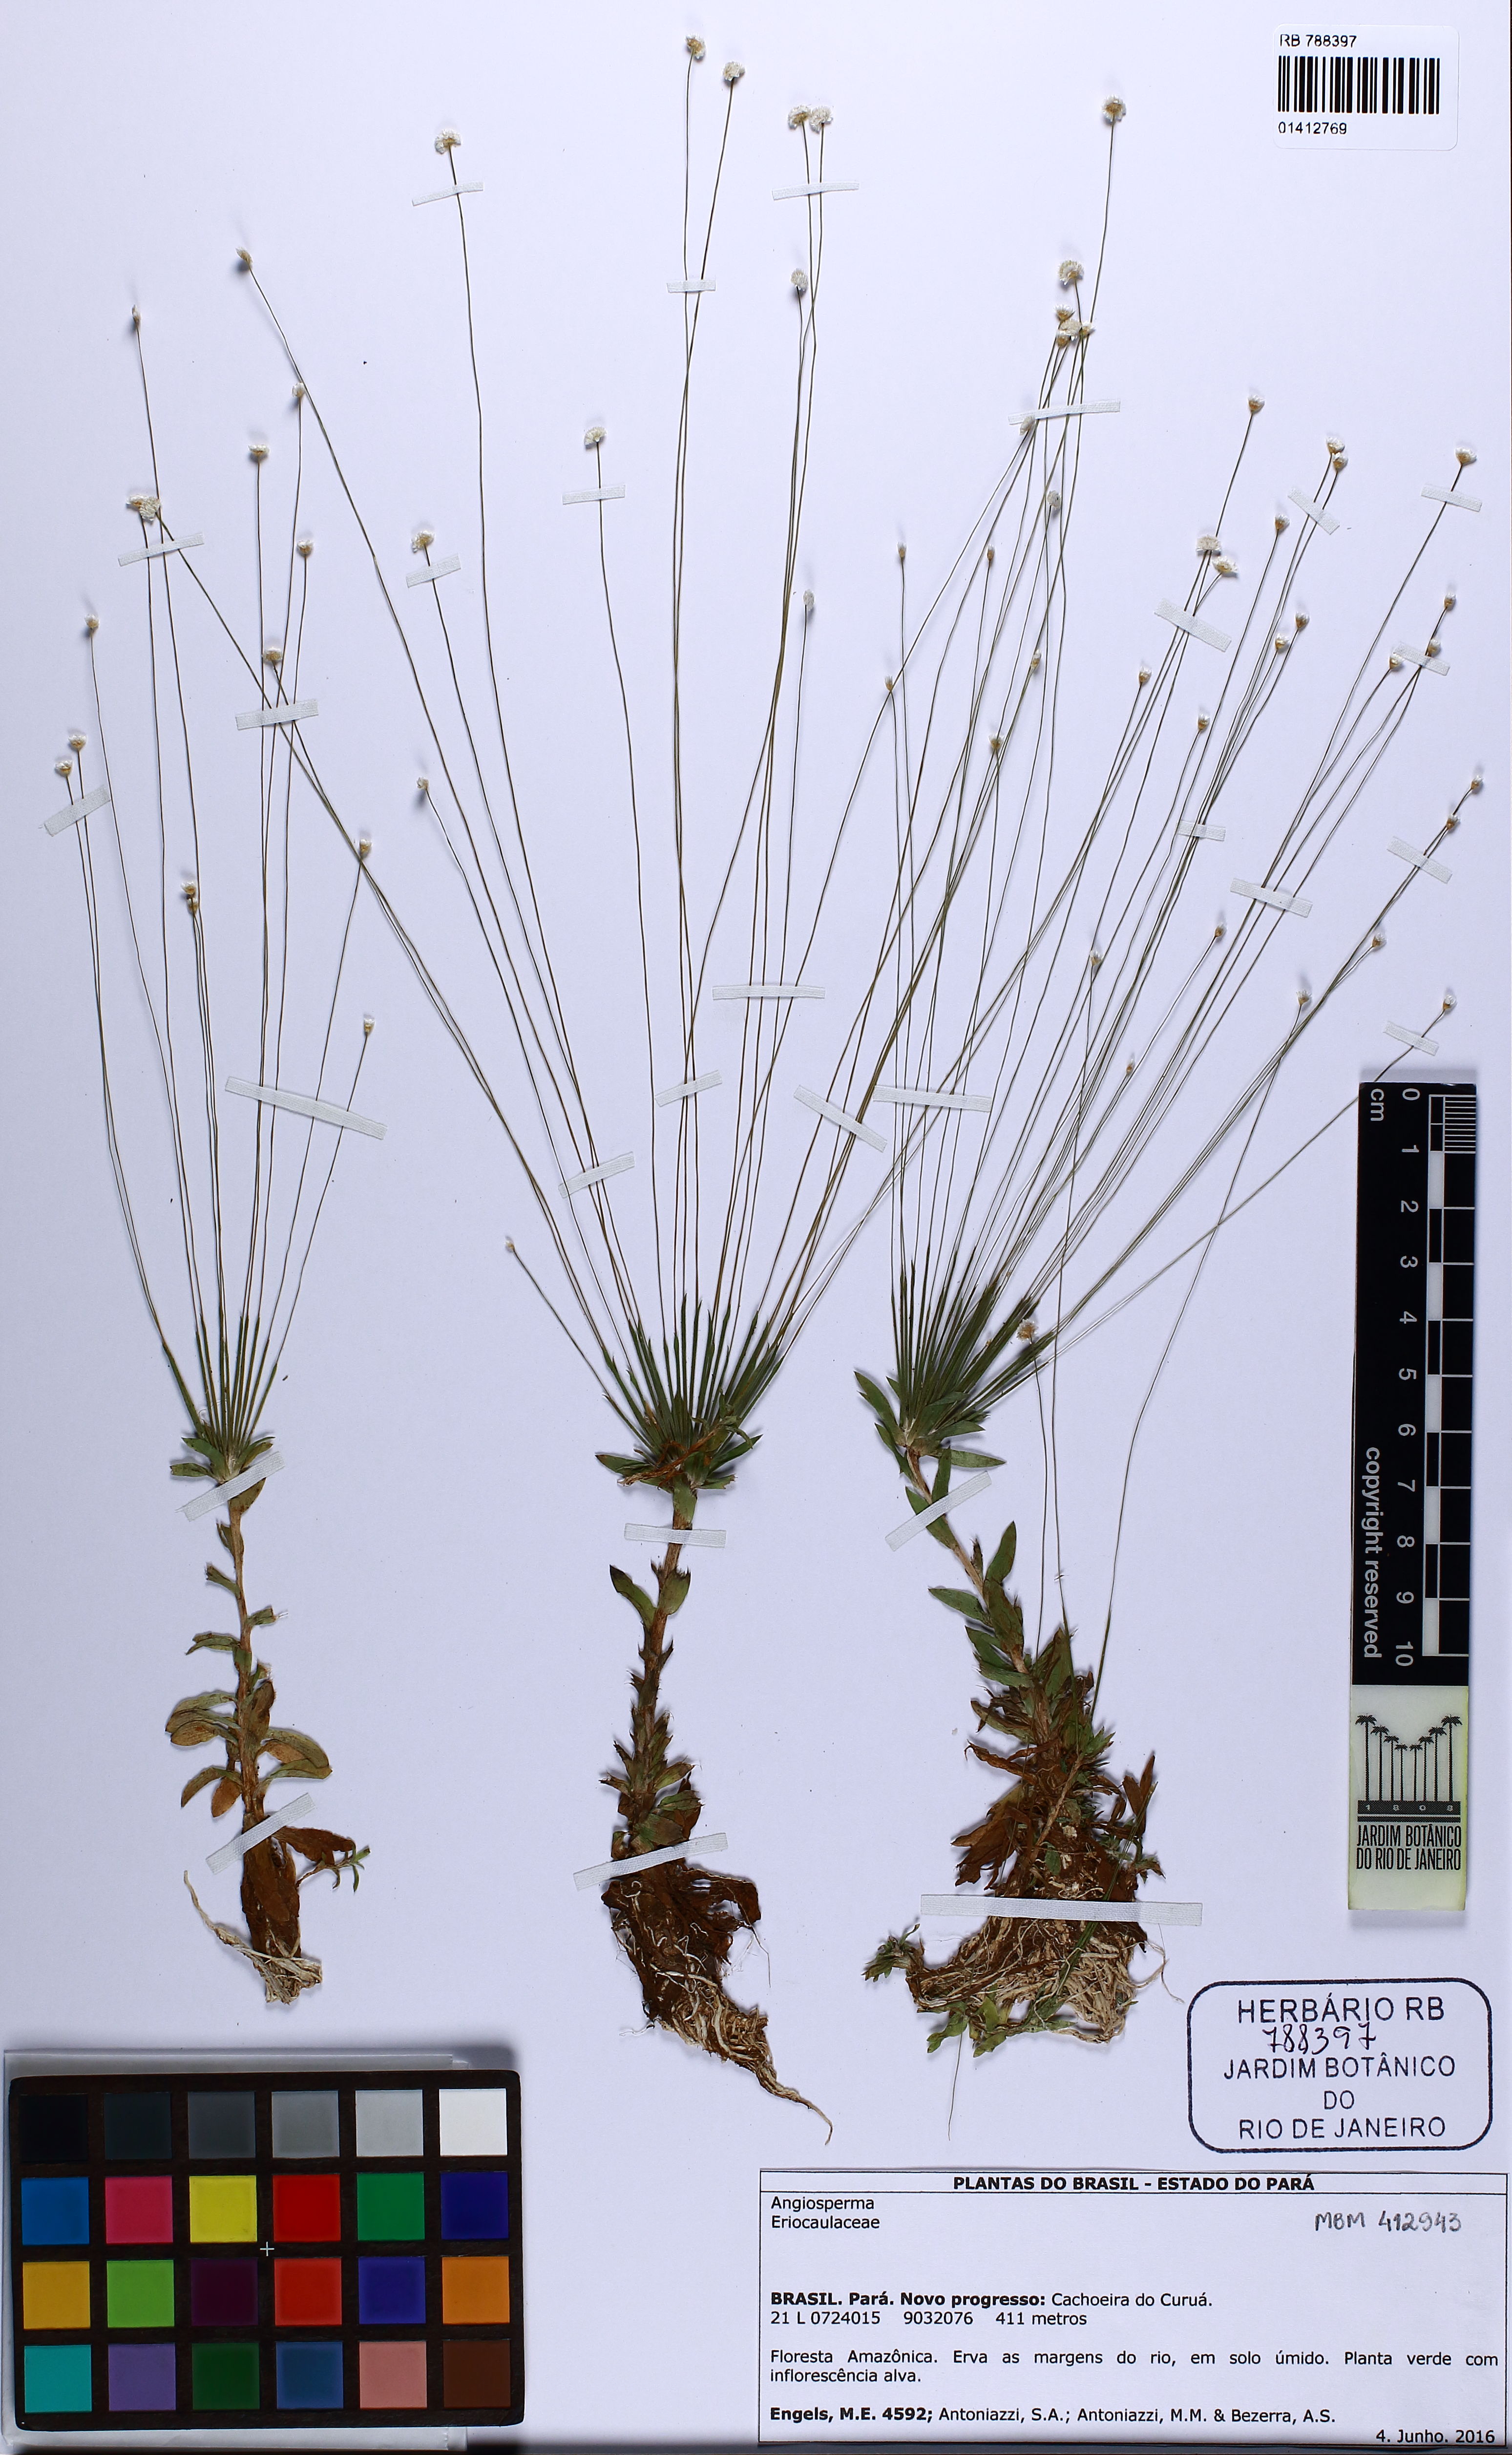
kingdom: Plantae
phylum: Tracheophyta
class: Liliopsida
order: Poales
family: Eriocaulaceae
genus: Syngonanthus
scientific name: Syngonanthus caulescens
